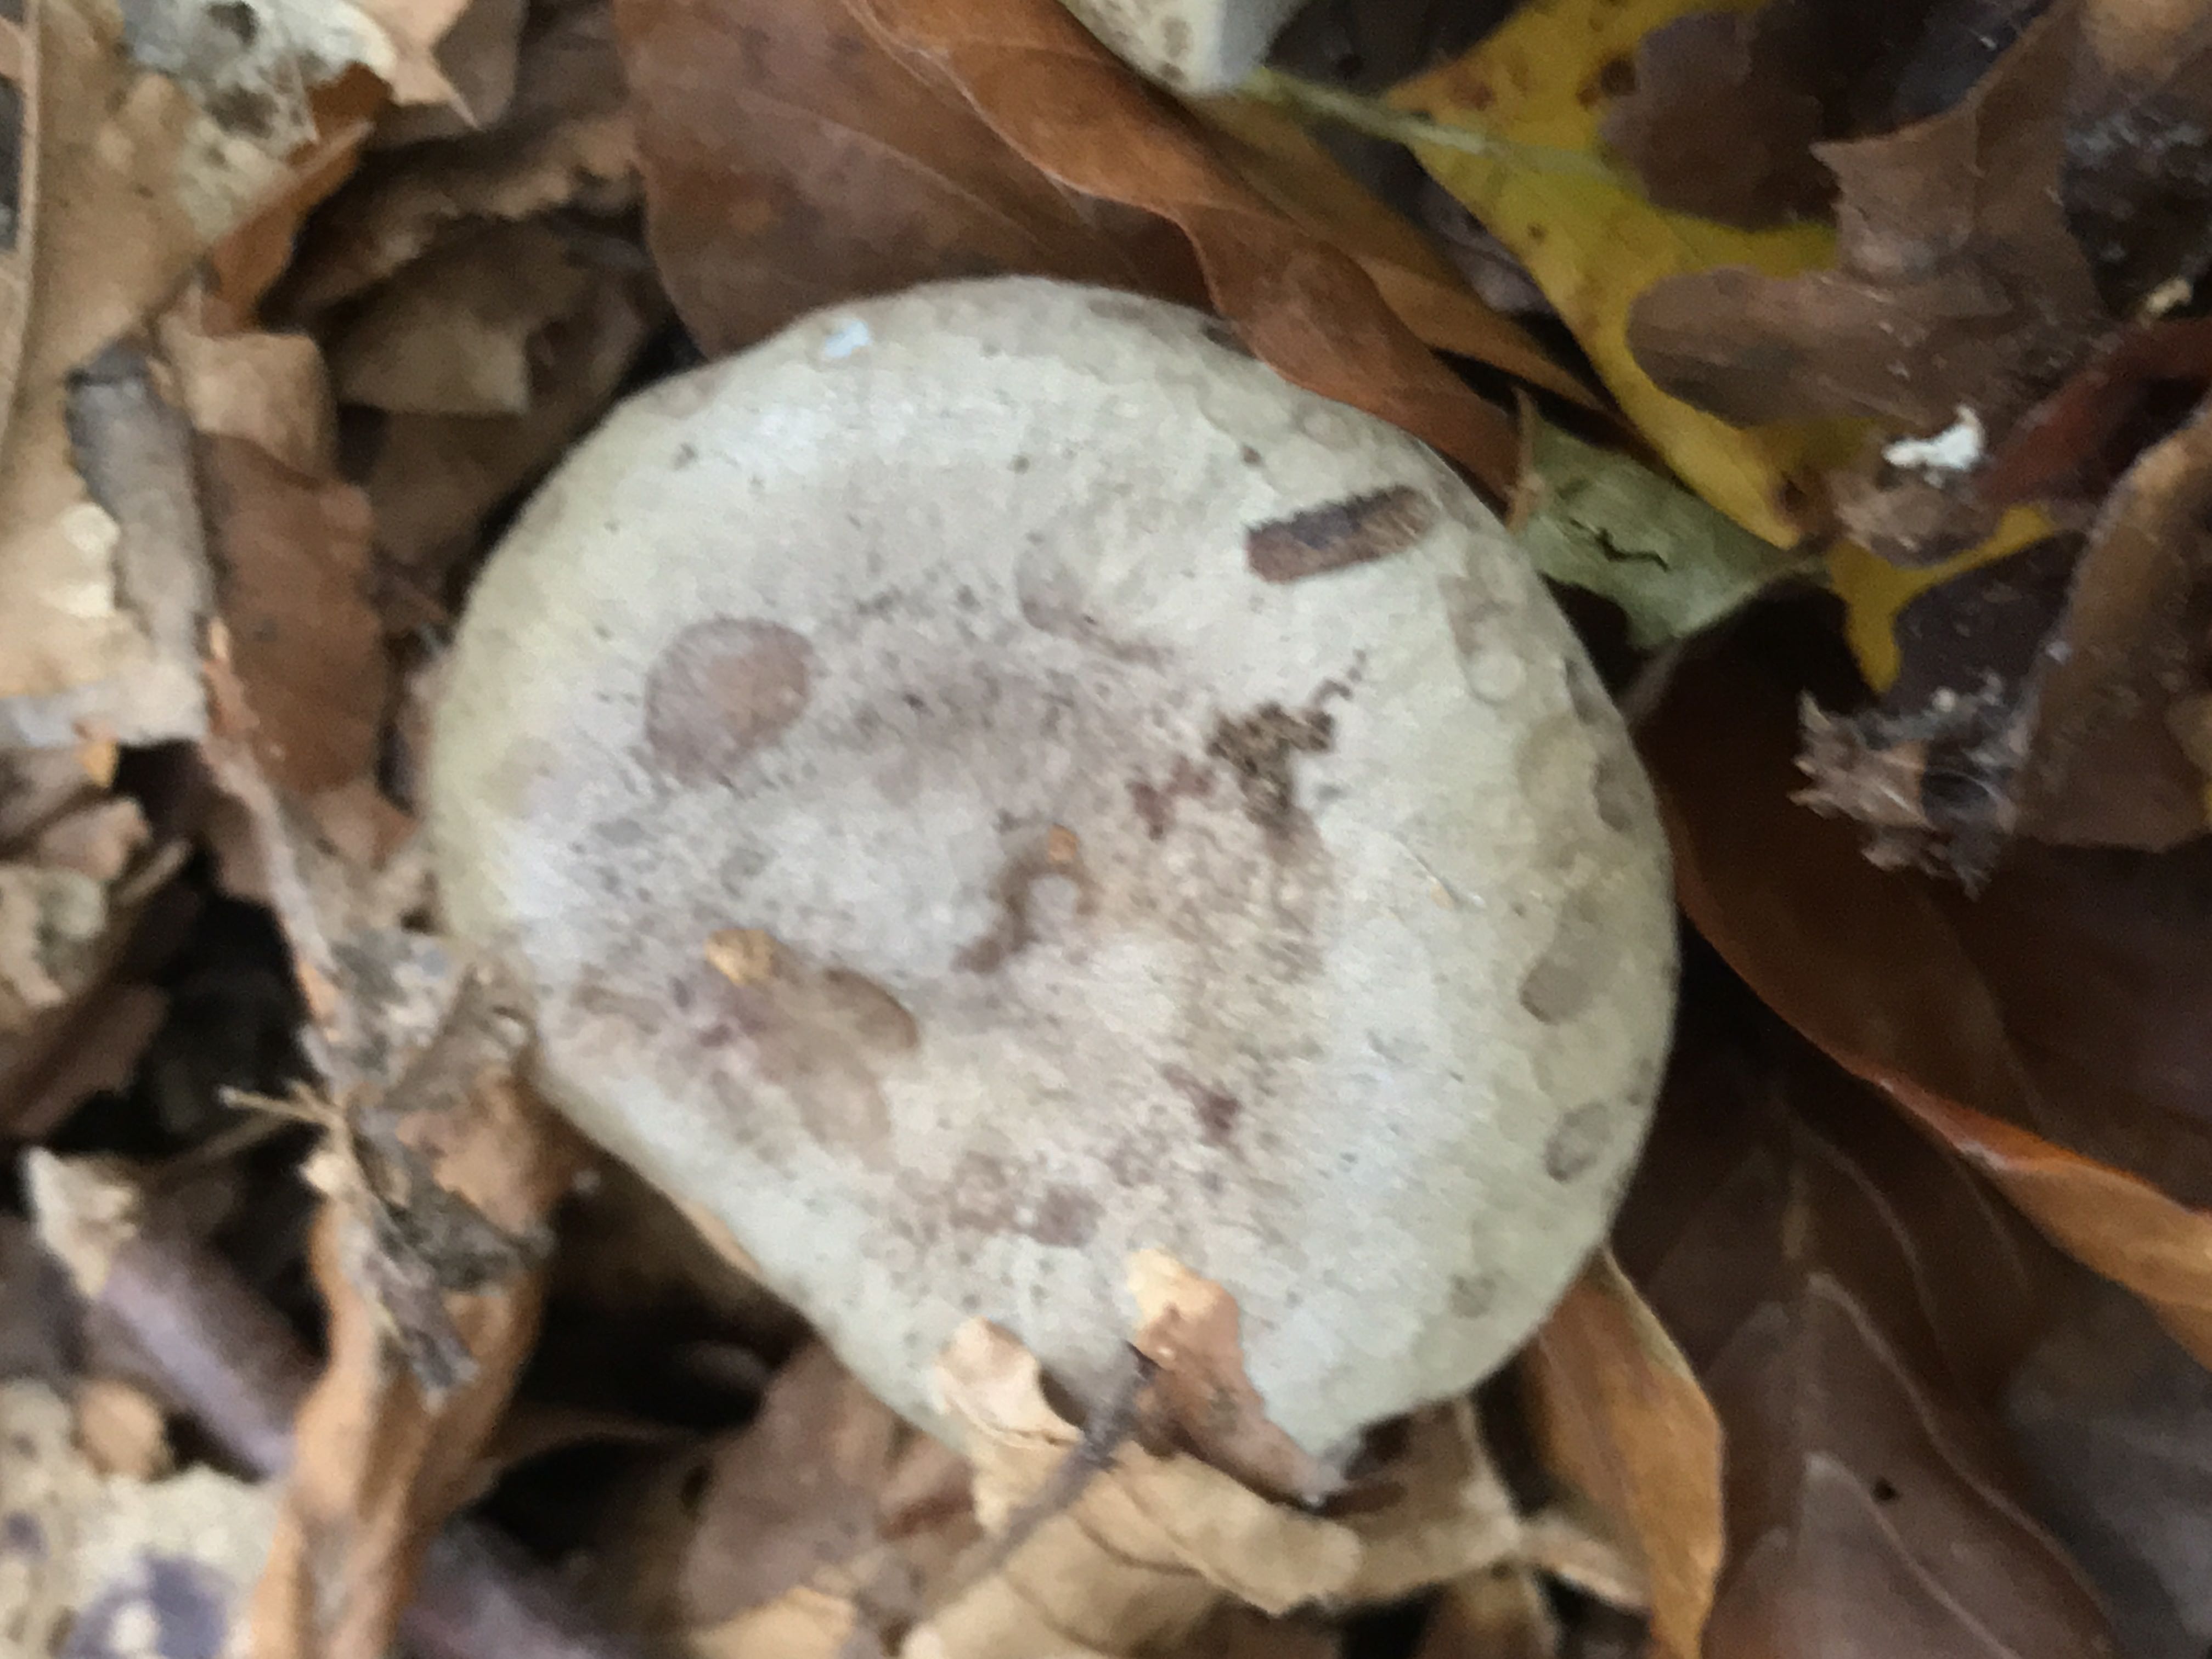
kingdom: Fungi
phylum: Basidiomycota
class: Agaricomycetes
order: Russulales
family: Russulaceae
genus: Lactarius
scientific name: Lactarius blennius
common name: dråbeplettet mælkehat
